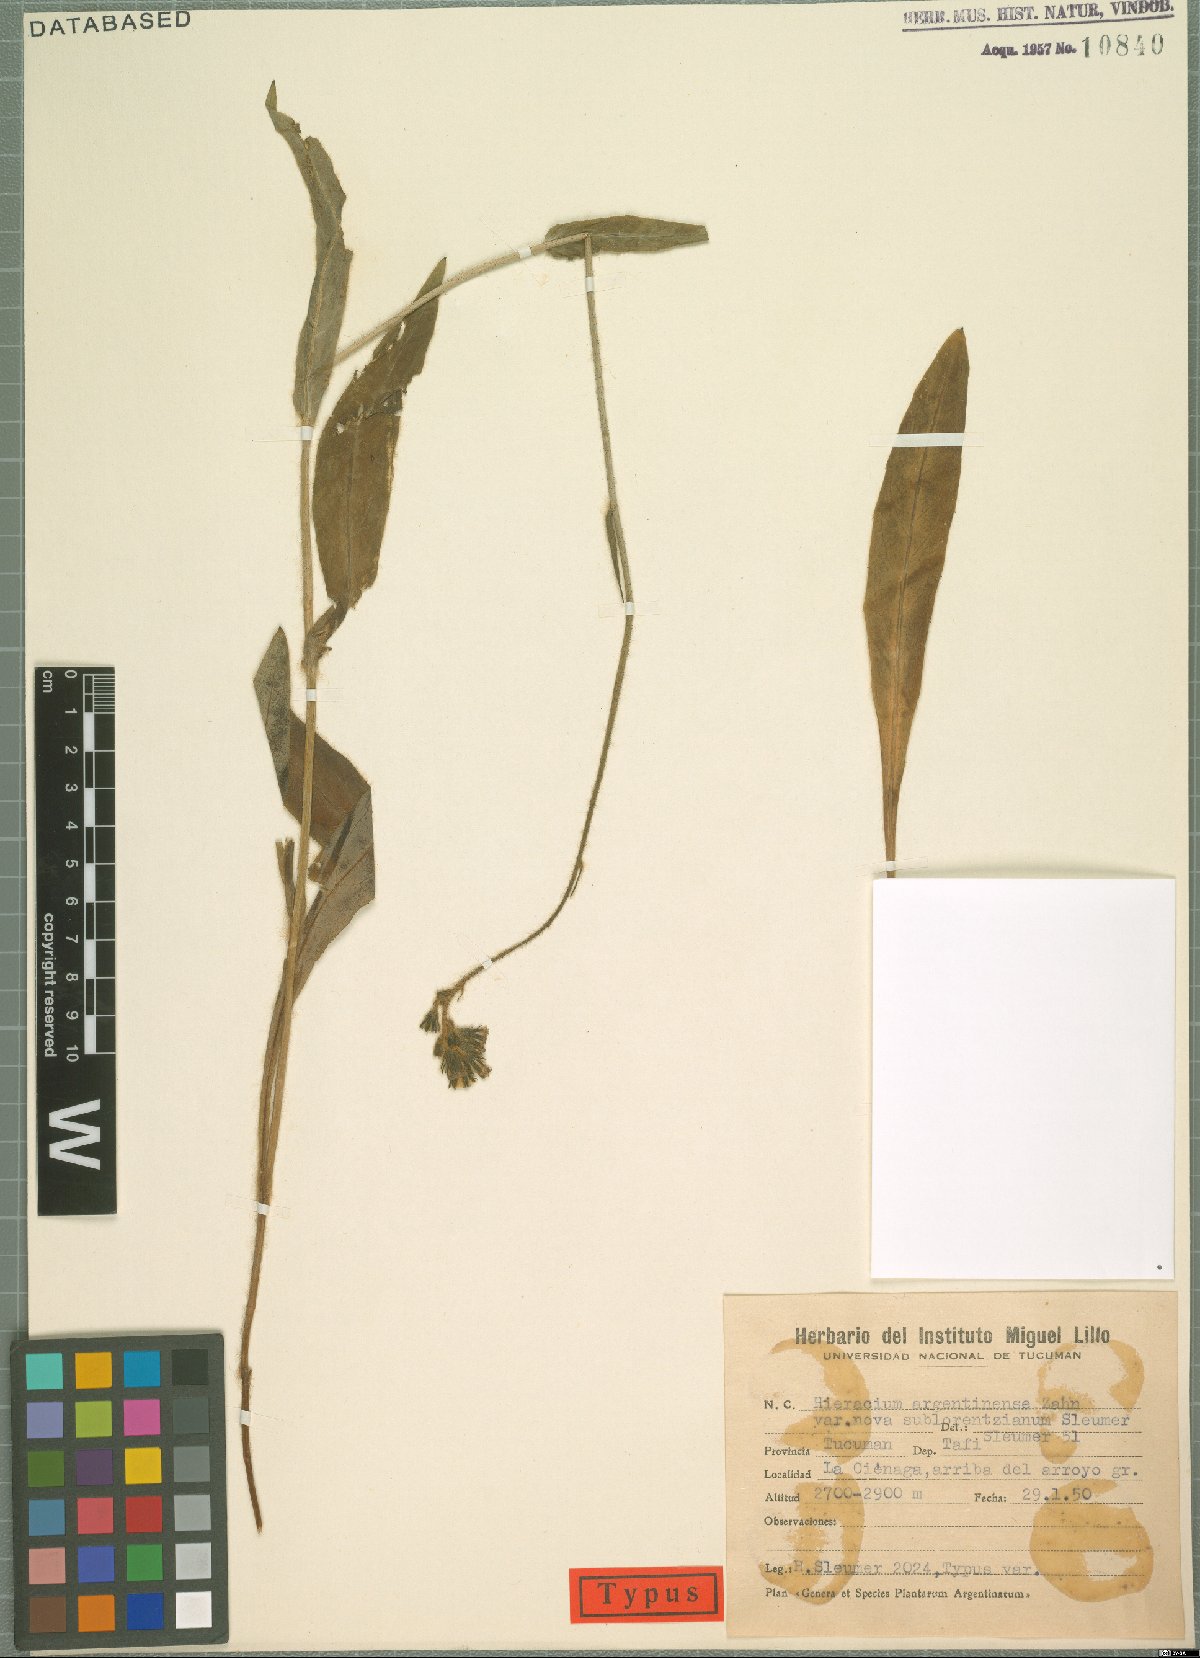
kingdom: Plantae
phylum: Tracheophyta
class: Magnoliopsida
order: Asterales
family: Asteraceae
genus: Hieracium
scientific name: Hieracium argentinense
